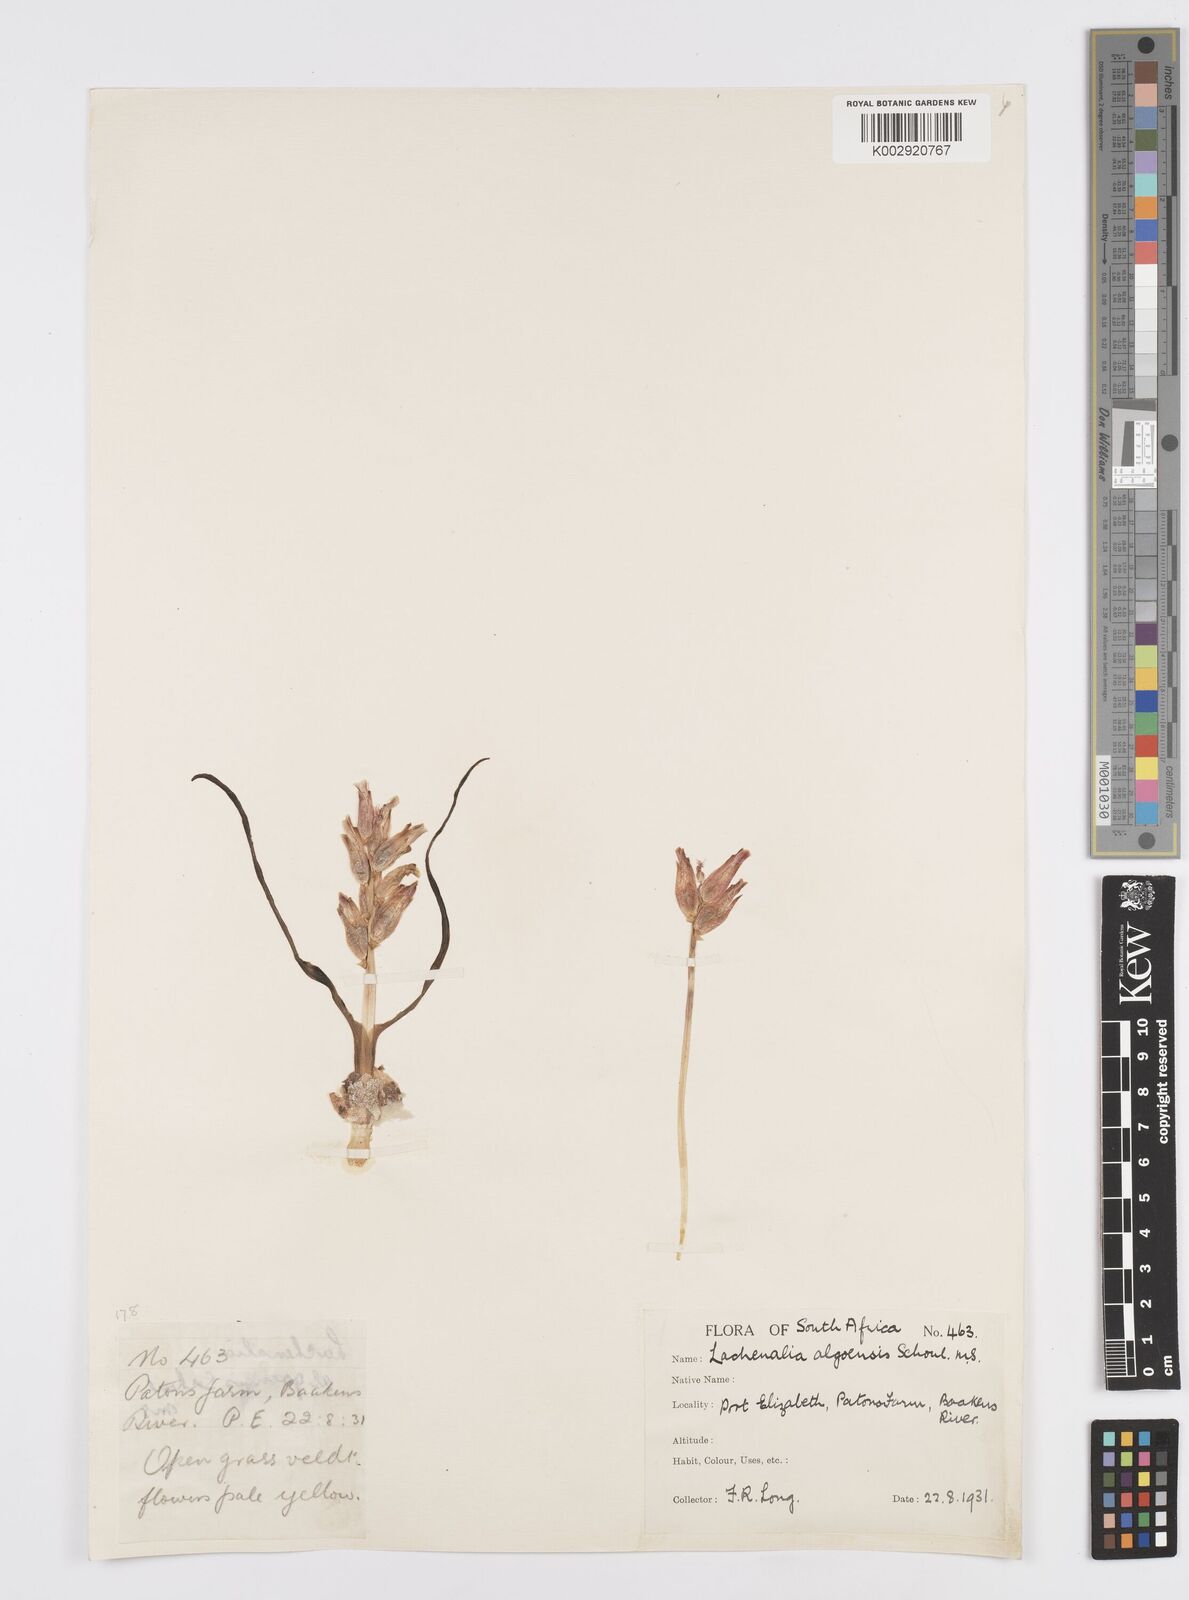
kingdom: Plantae
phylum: Tracheophyta
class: Liliopsida
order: Asparagales
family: Asparagaceae
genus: Lachenalia
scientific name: Lachenalia algoensis
